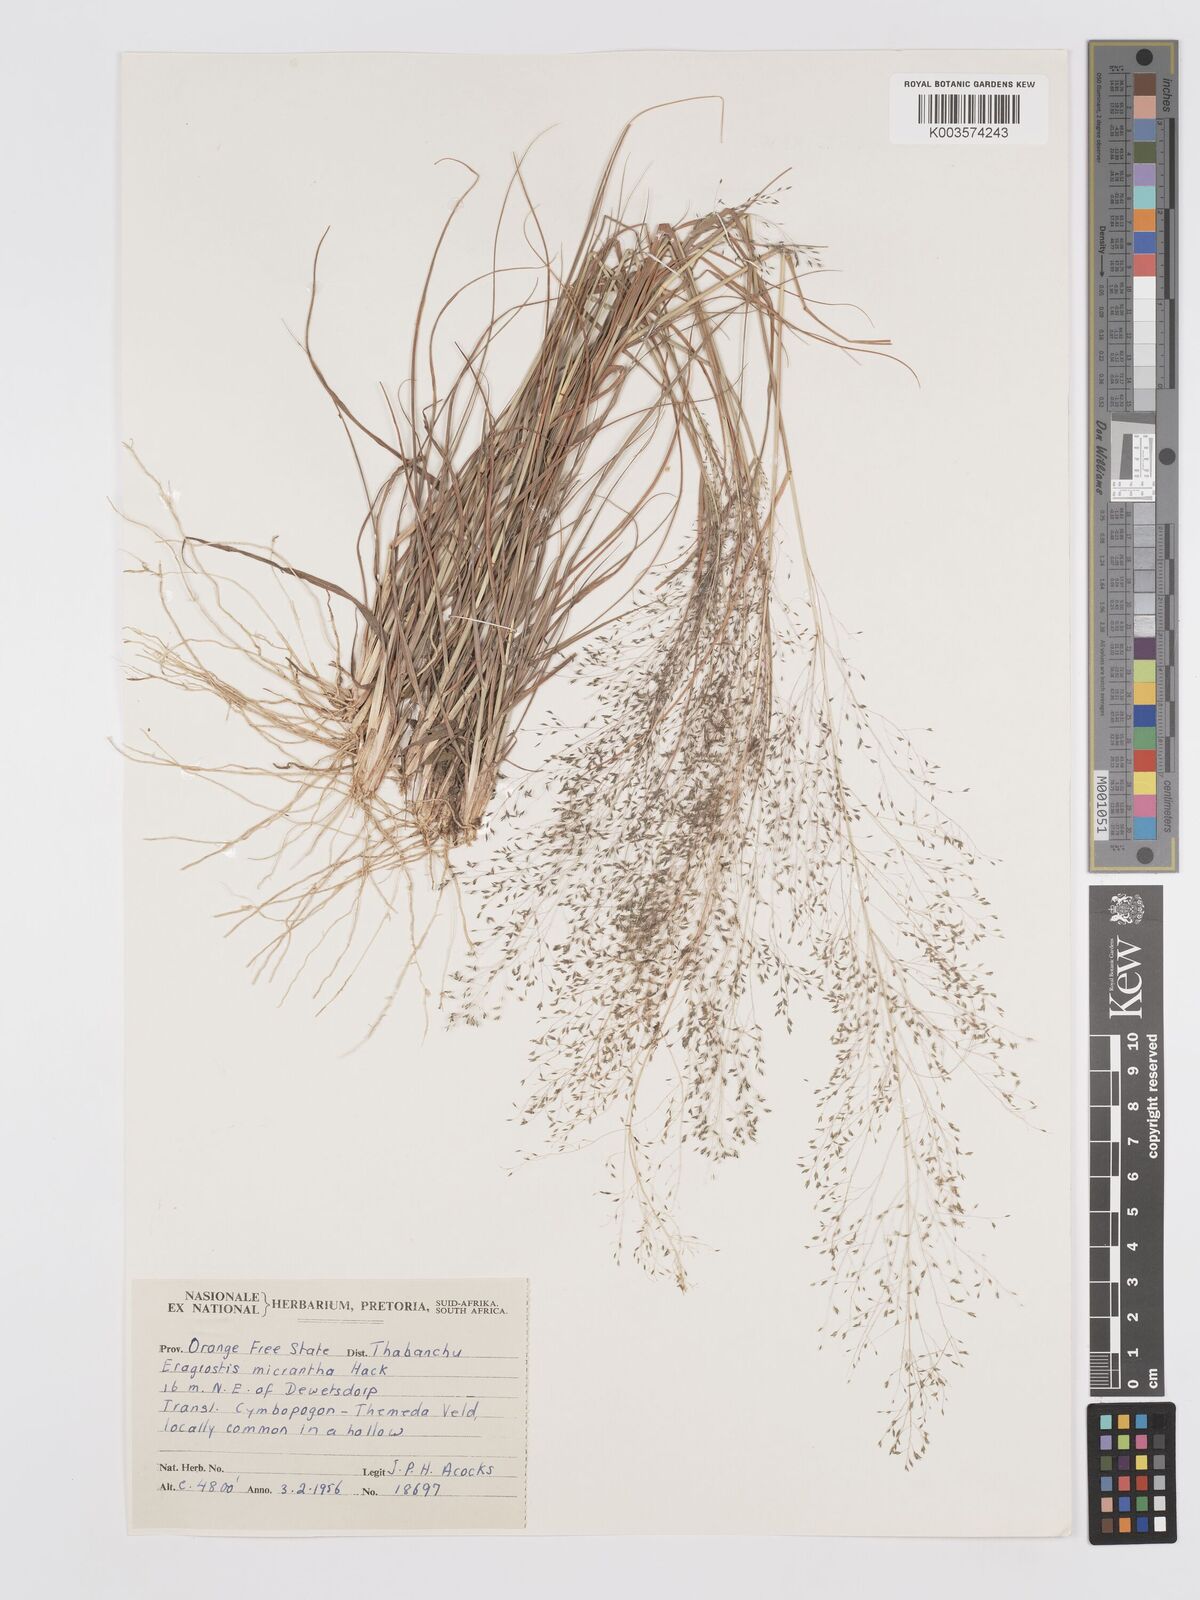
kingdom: Plantae
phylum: Tracheophyta
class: Liliopsida
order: Poales
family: Poaceae
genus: Eragrostis
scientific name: Eragrostis micrantha
